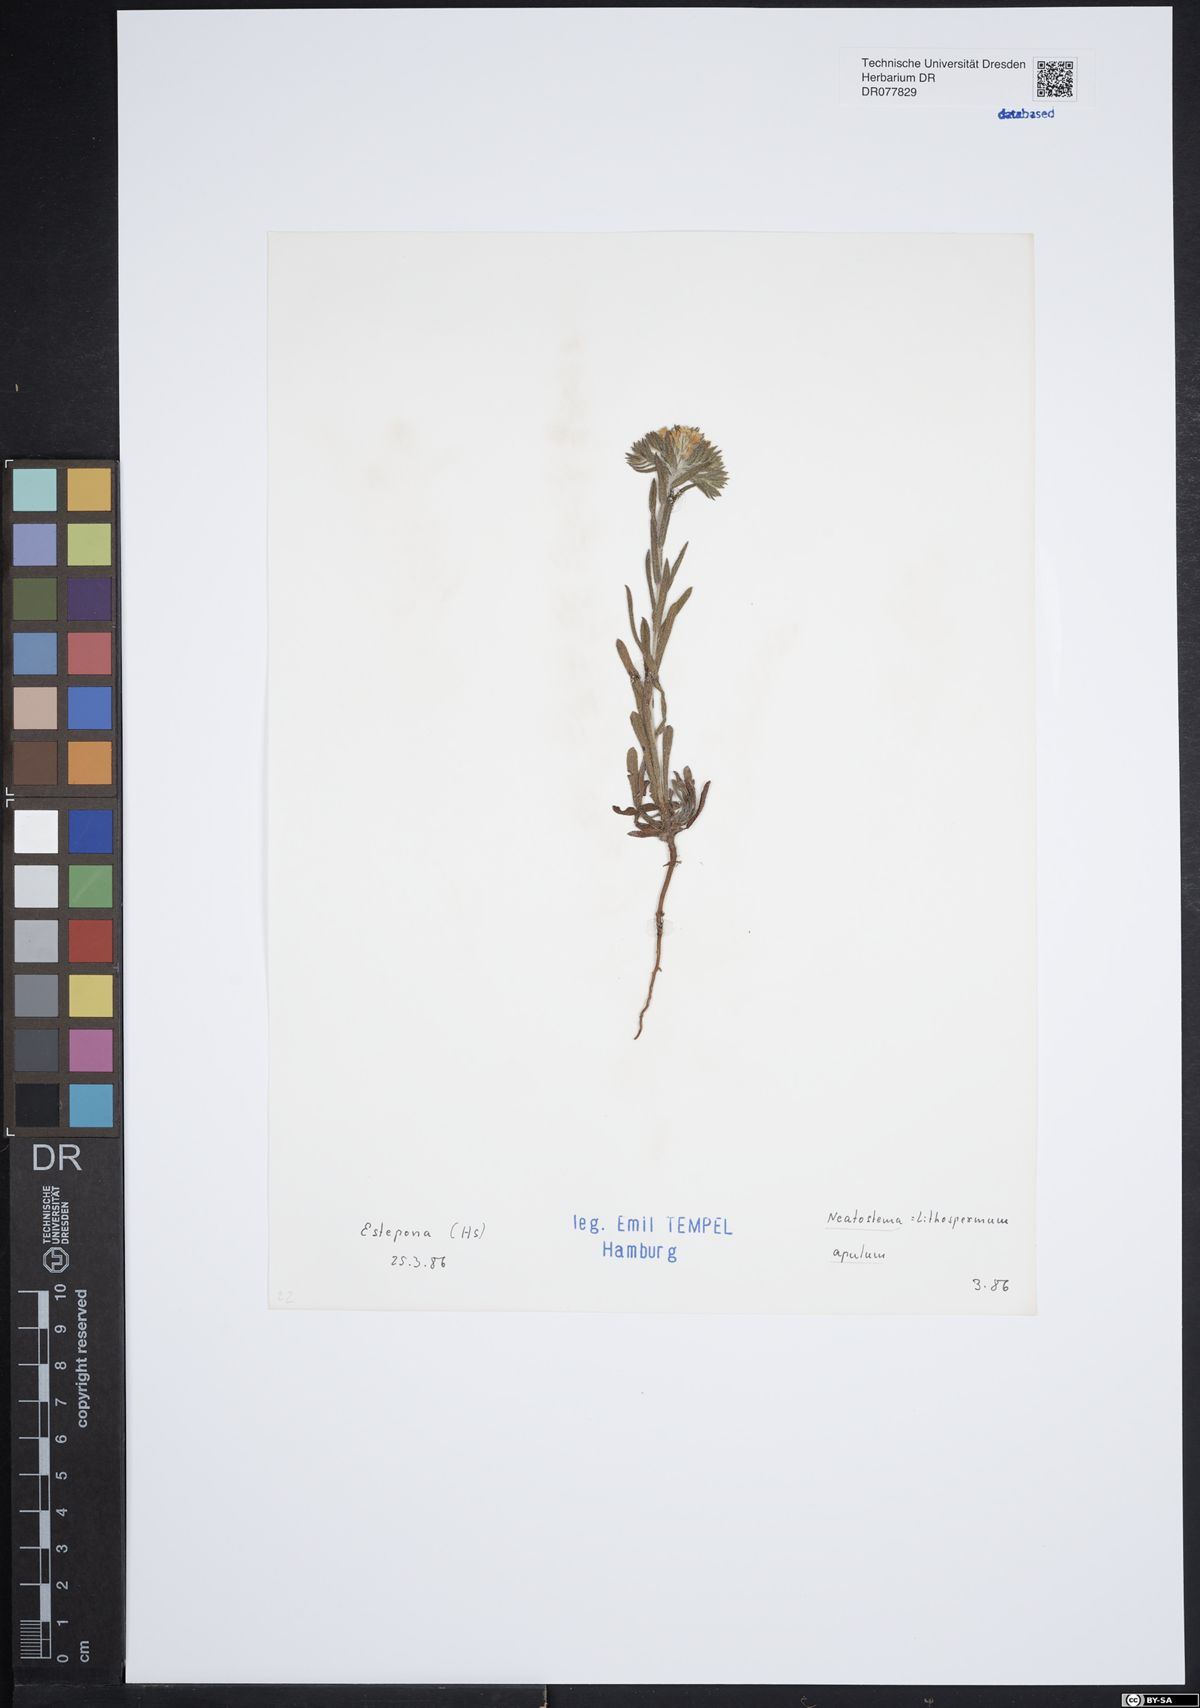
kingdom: Plantae
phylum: Tracheophyta
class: Magnoliopsida
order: Boraginales
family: Boraginaceae
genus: Neatostema
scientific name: Neatostema apulum
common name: Hairy sheepweed
